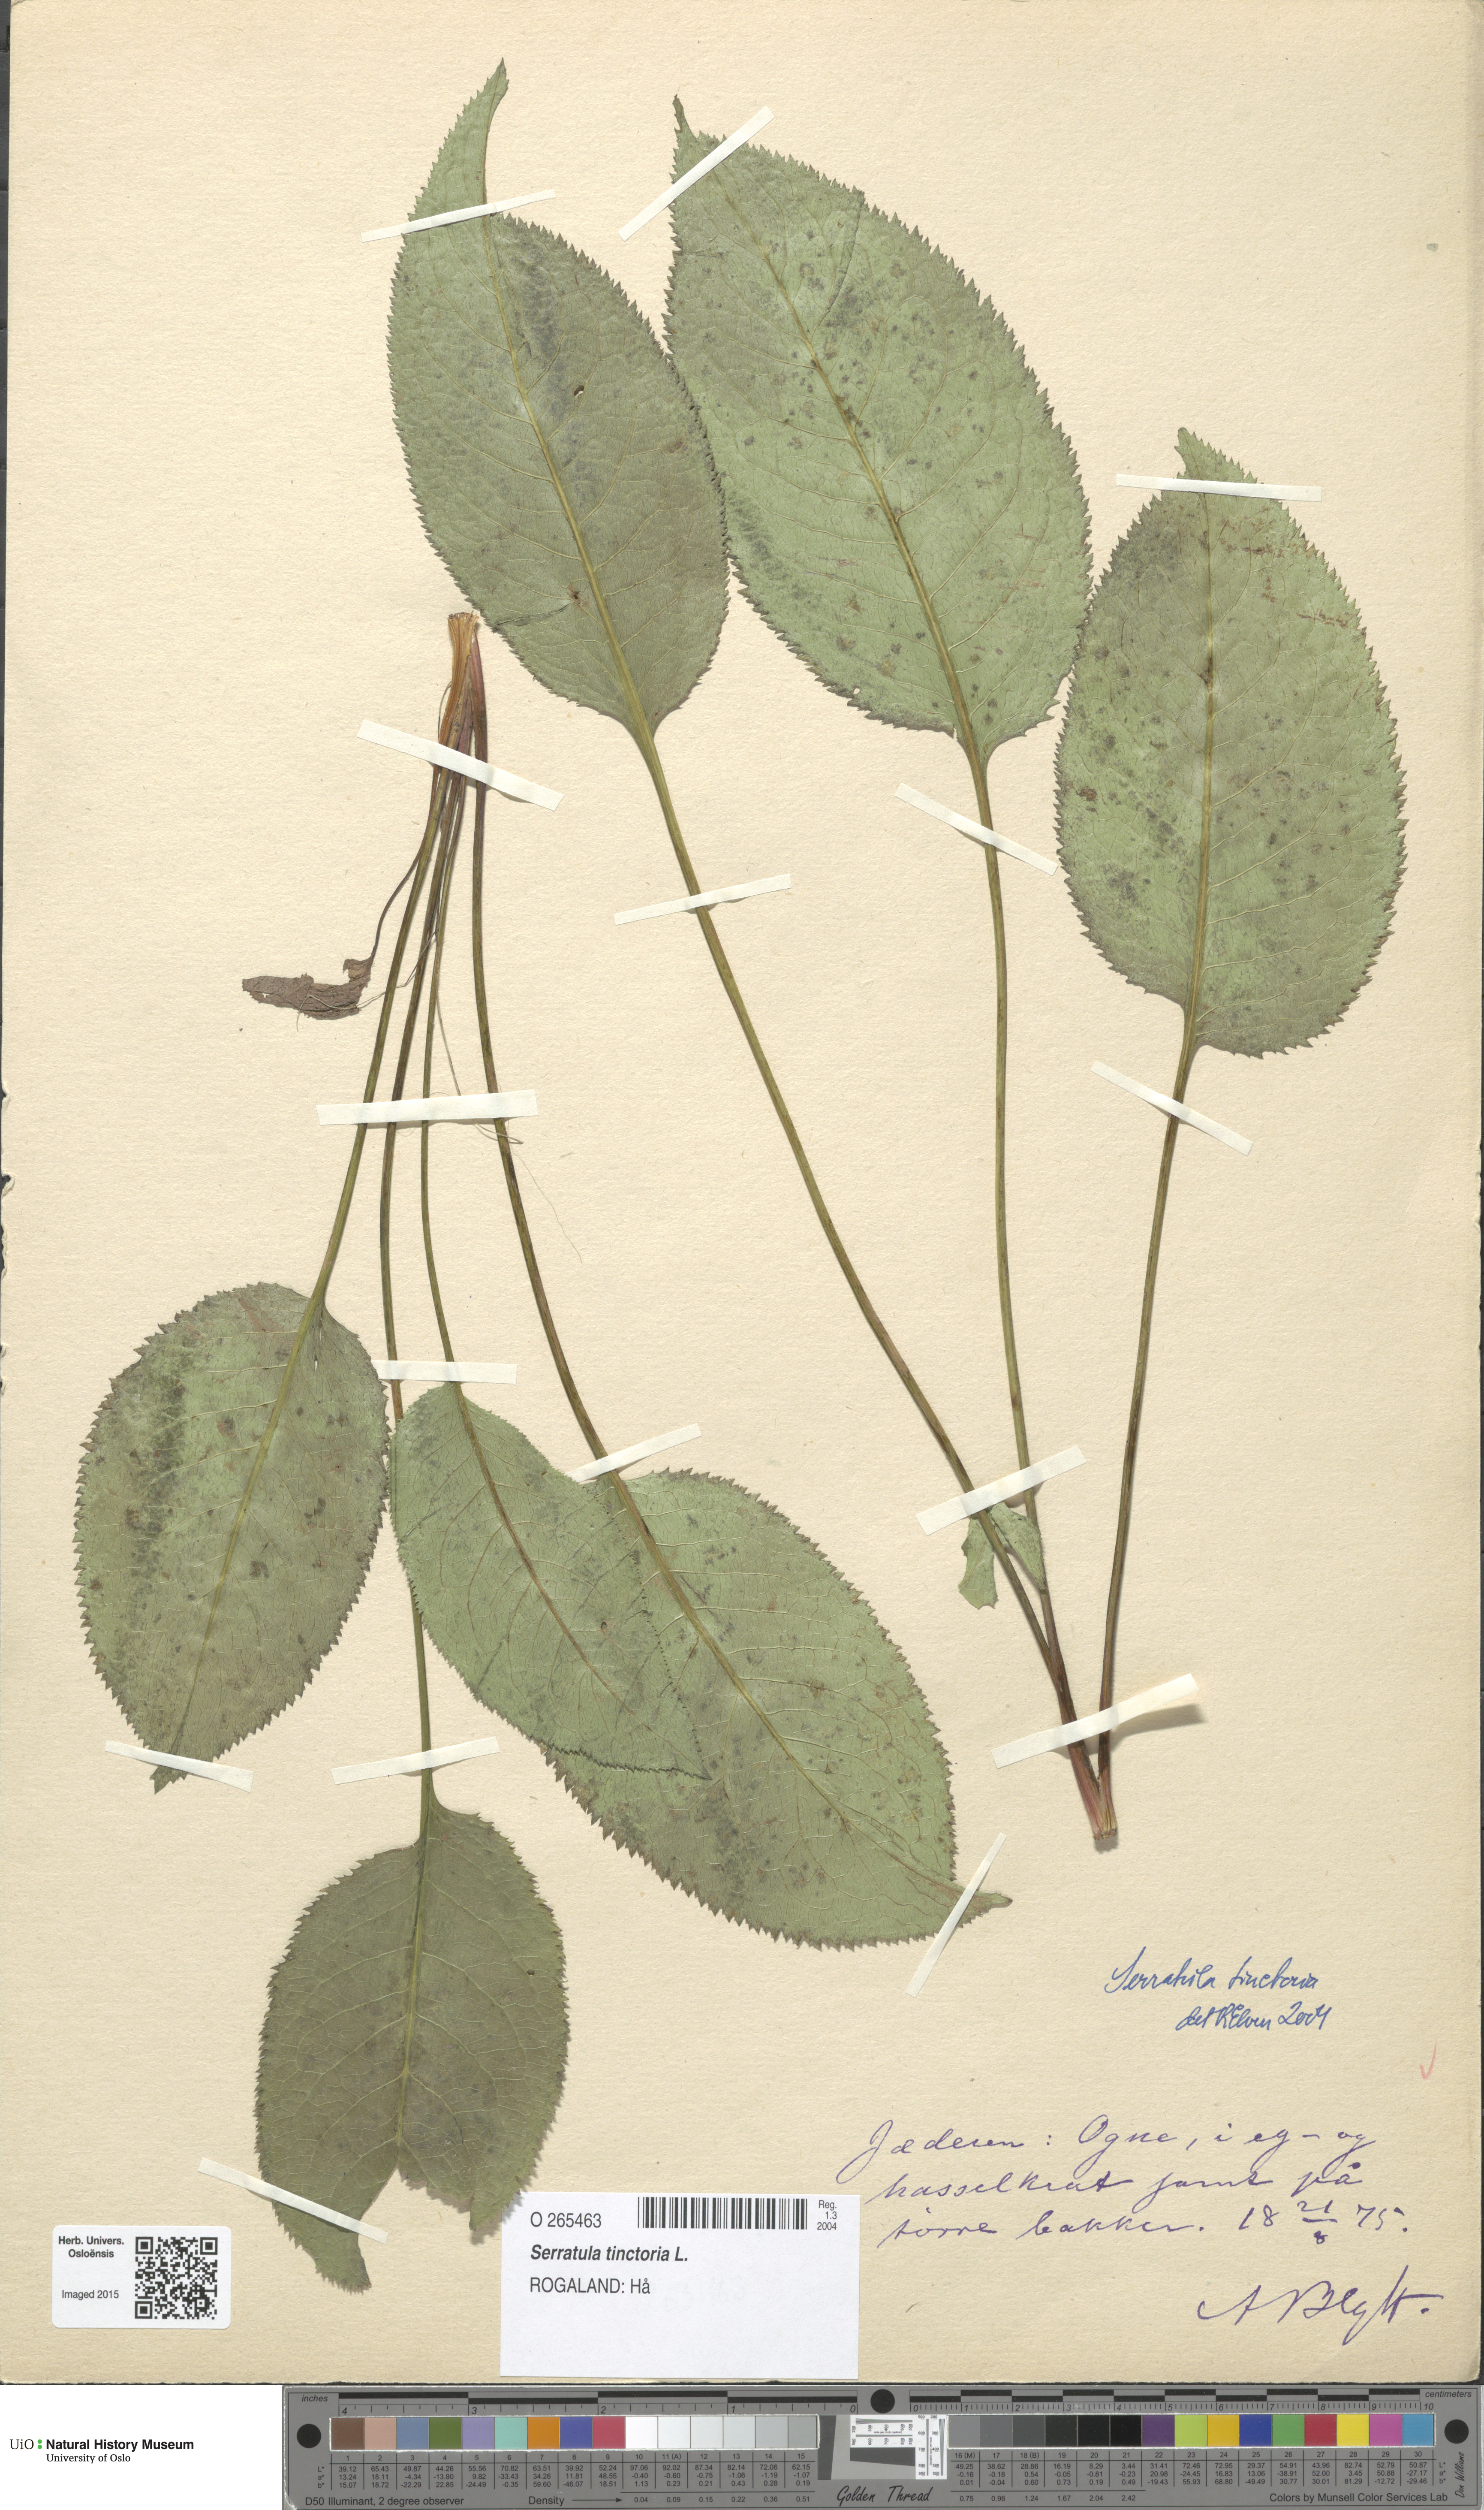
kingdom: Plantae
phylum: Tracheophyta
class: Magnoliopsida
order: Asterales
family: Asteraceae
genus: Serratula
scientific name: Serratula tinctoria
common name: Saw-wort
